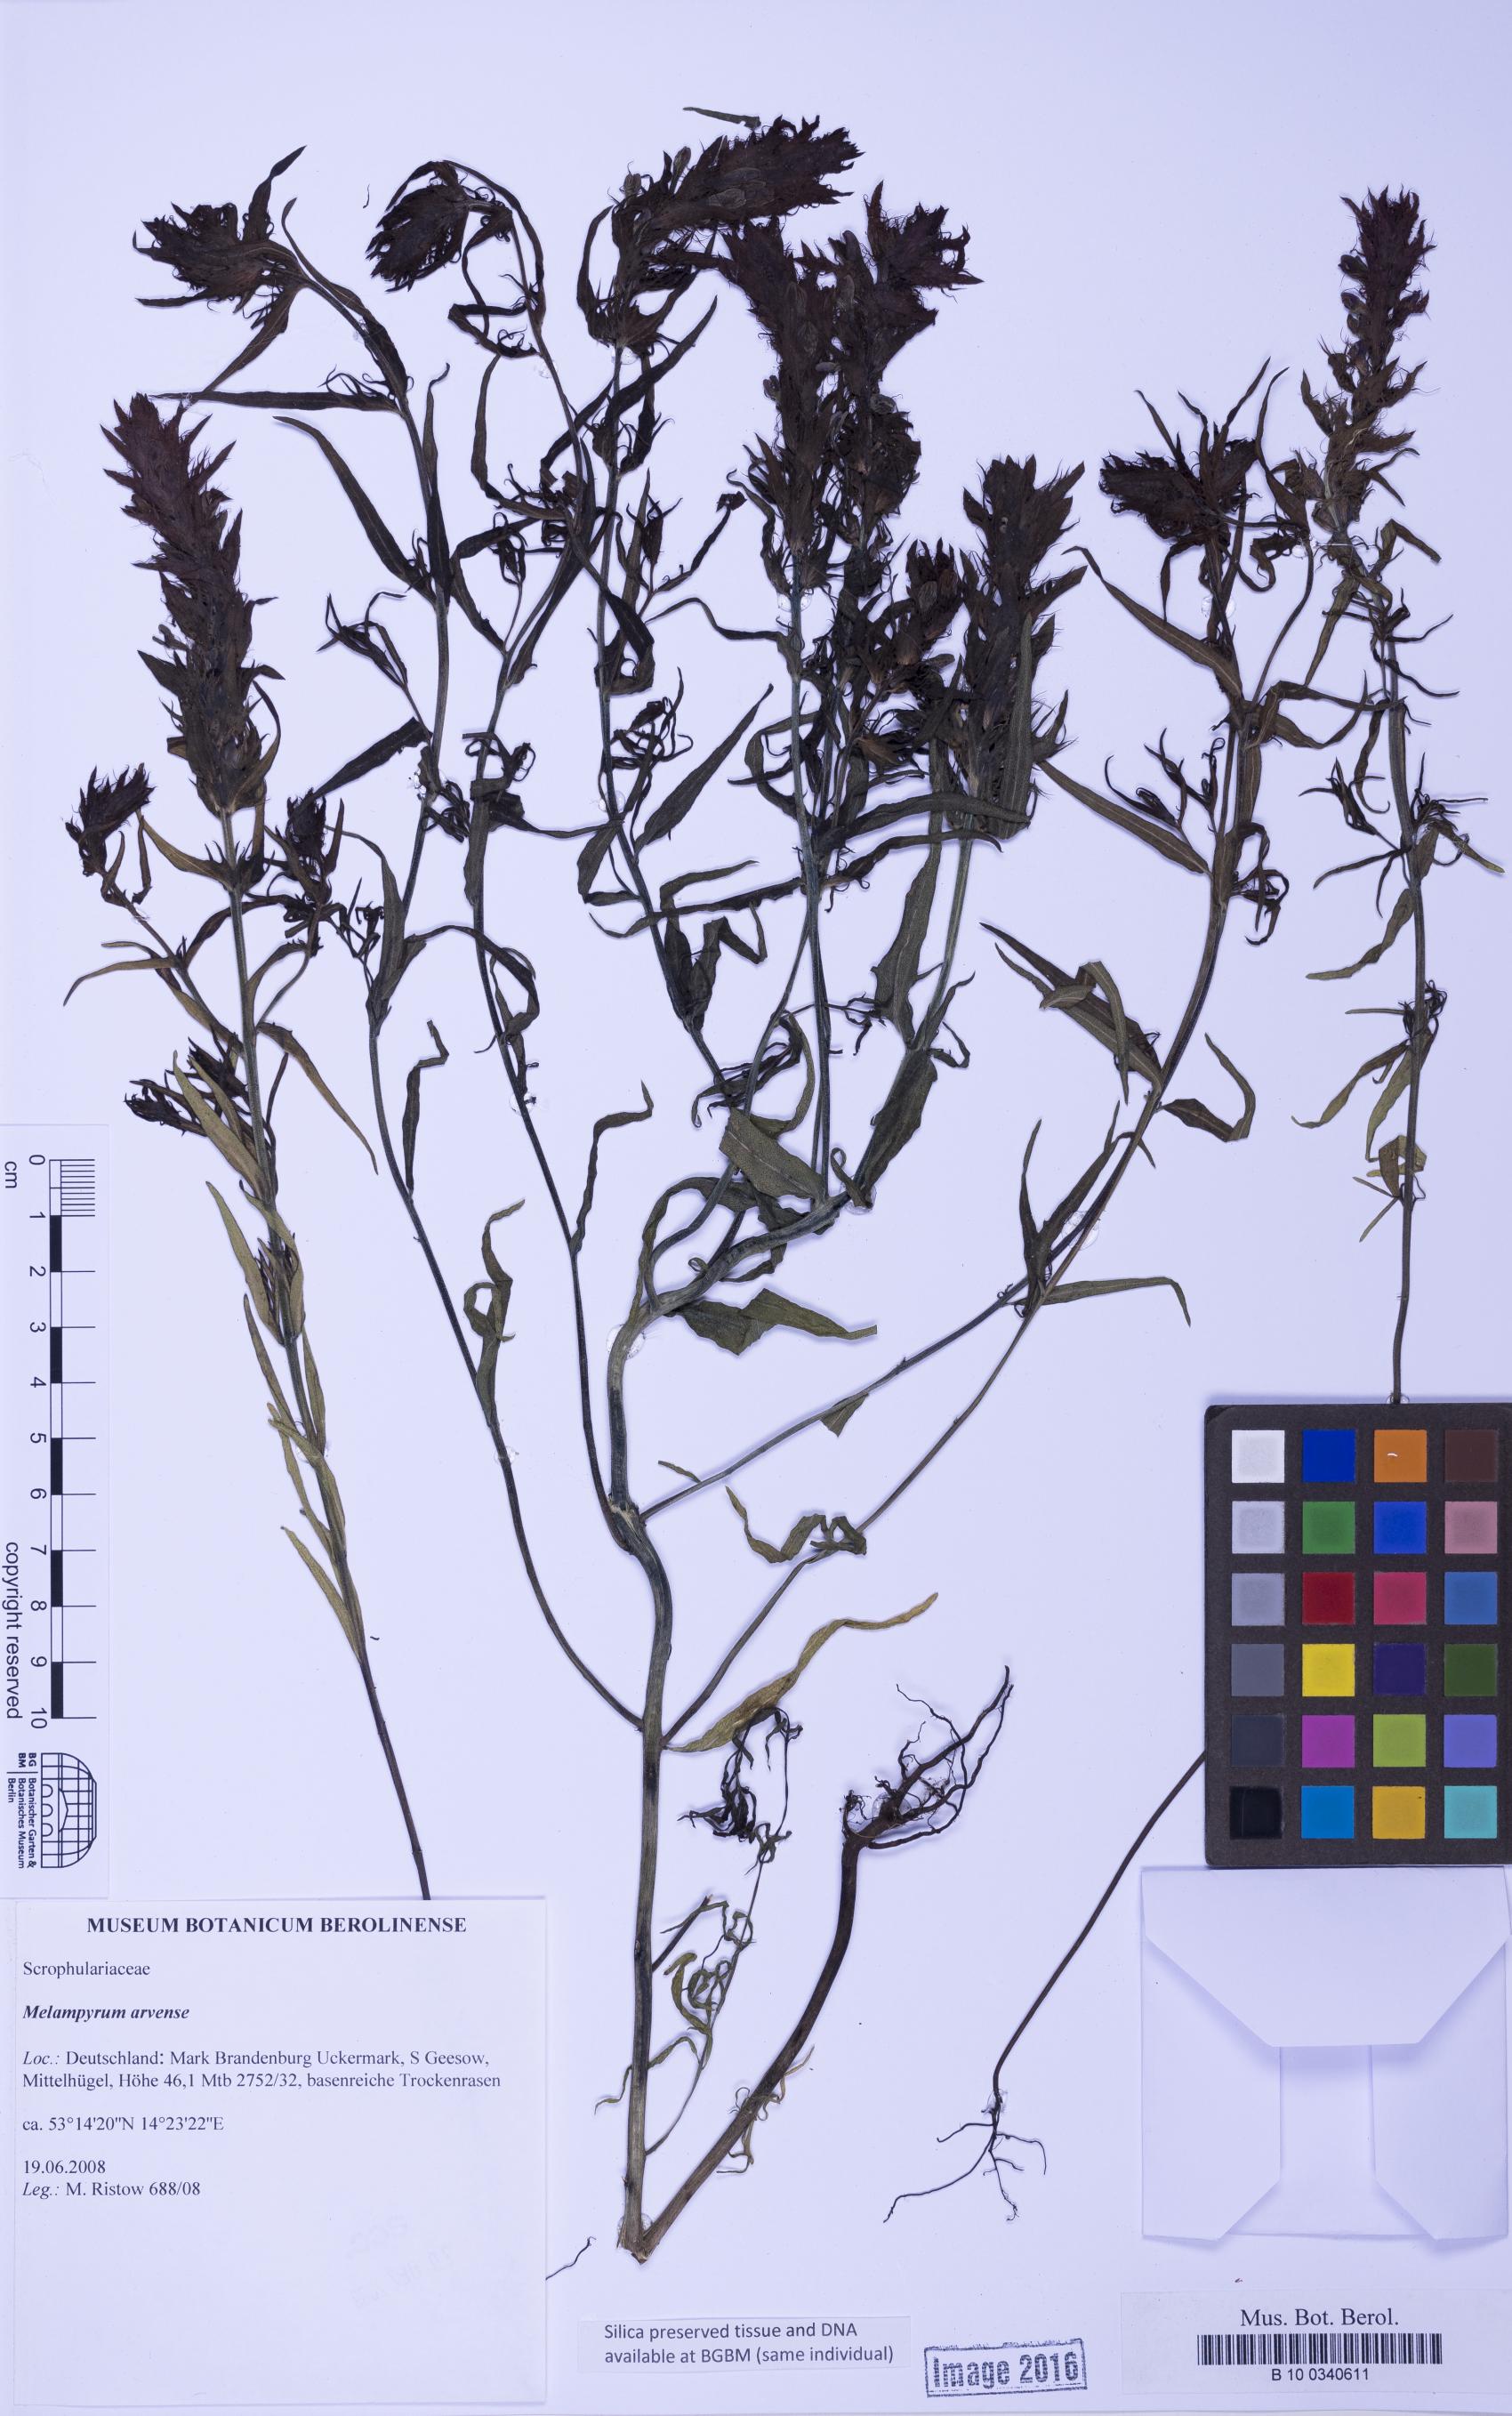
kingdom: Plantae
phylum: Tracheophyta
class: Magnoliopsida
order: Lamiales
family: Orobanchaceae
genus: Melampyrum
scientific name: Melampyrum arvense
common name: Field cow-wheat
